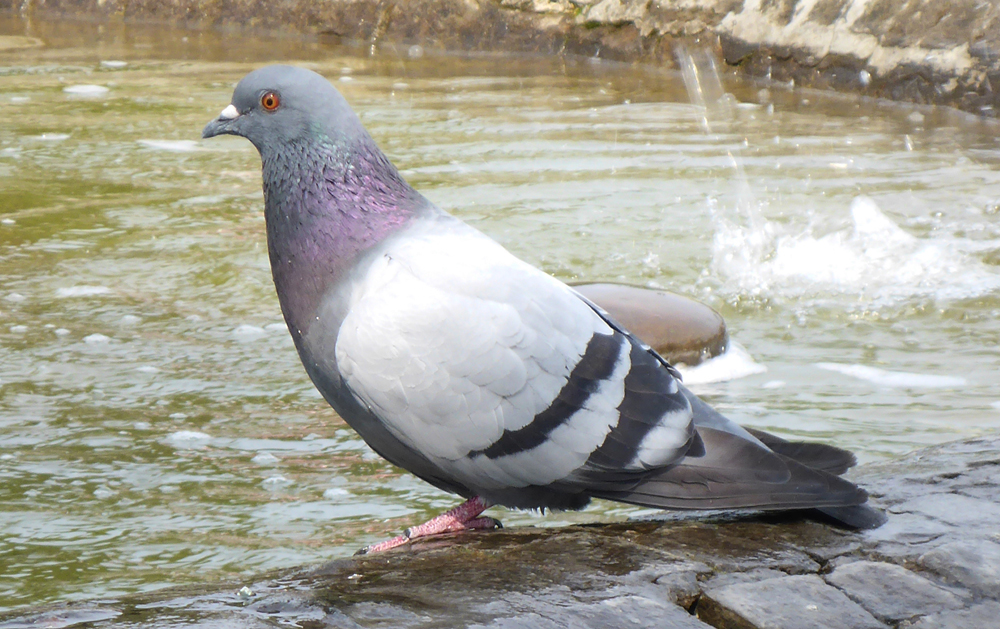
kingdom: Animalia
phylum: Chordata
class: Aves
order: Columbiformes
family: Columbidae
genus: Columba
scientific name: Columba livia
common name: Rock pigeon
